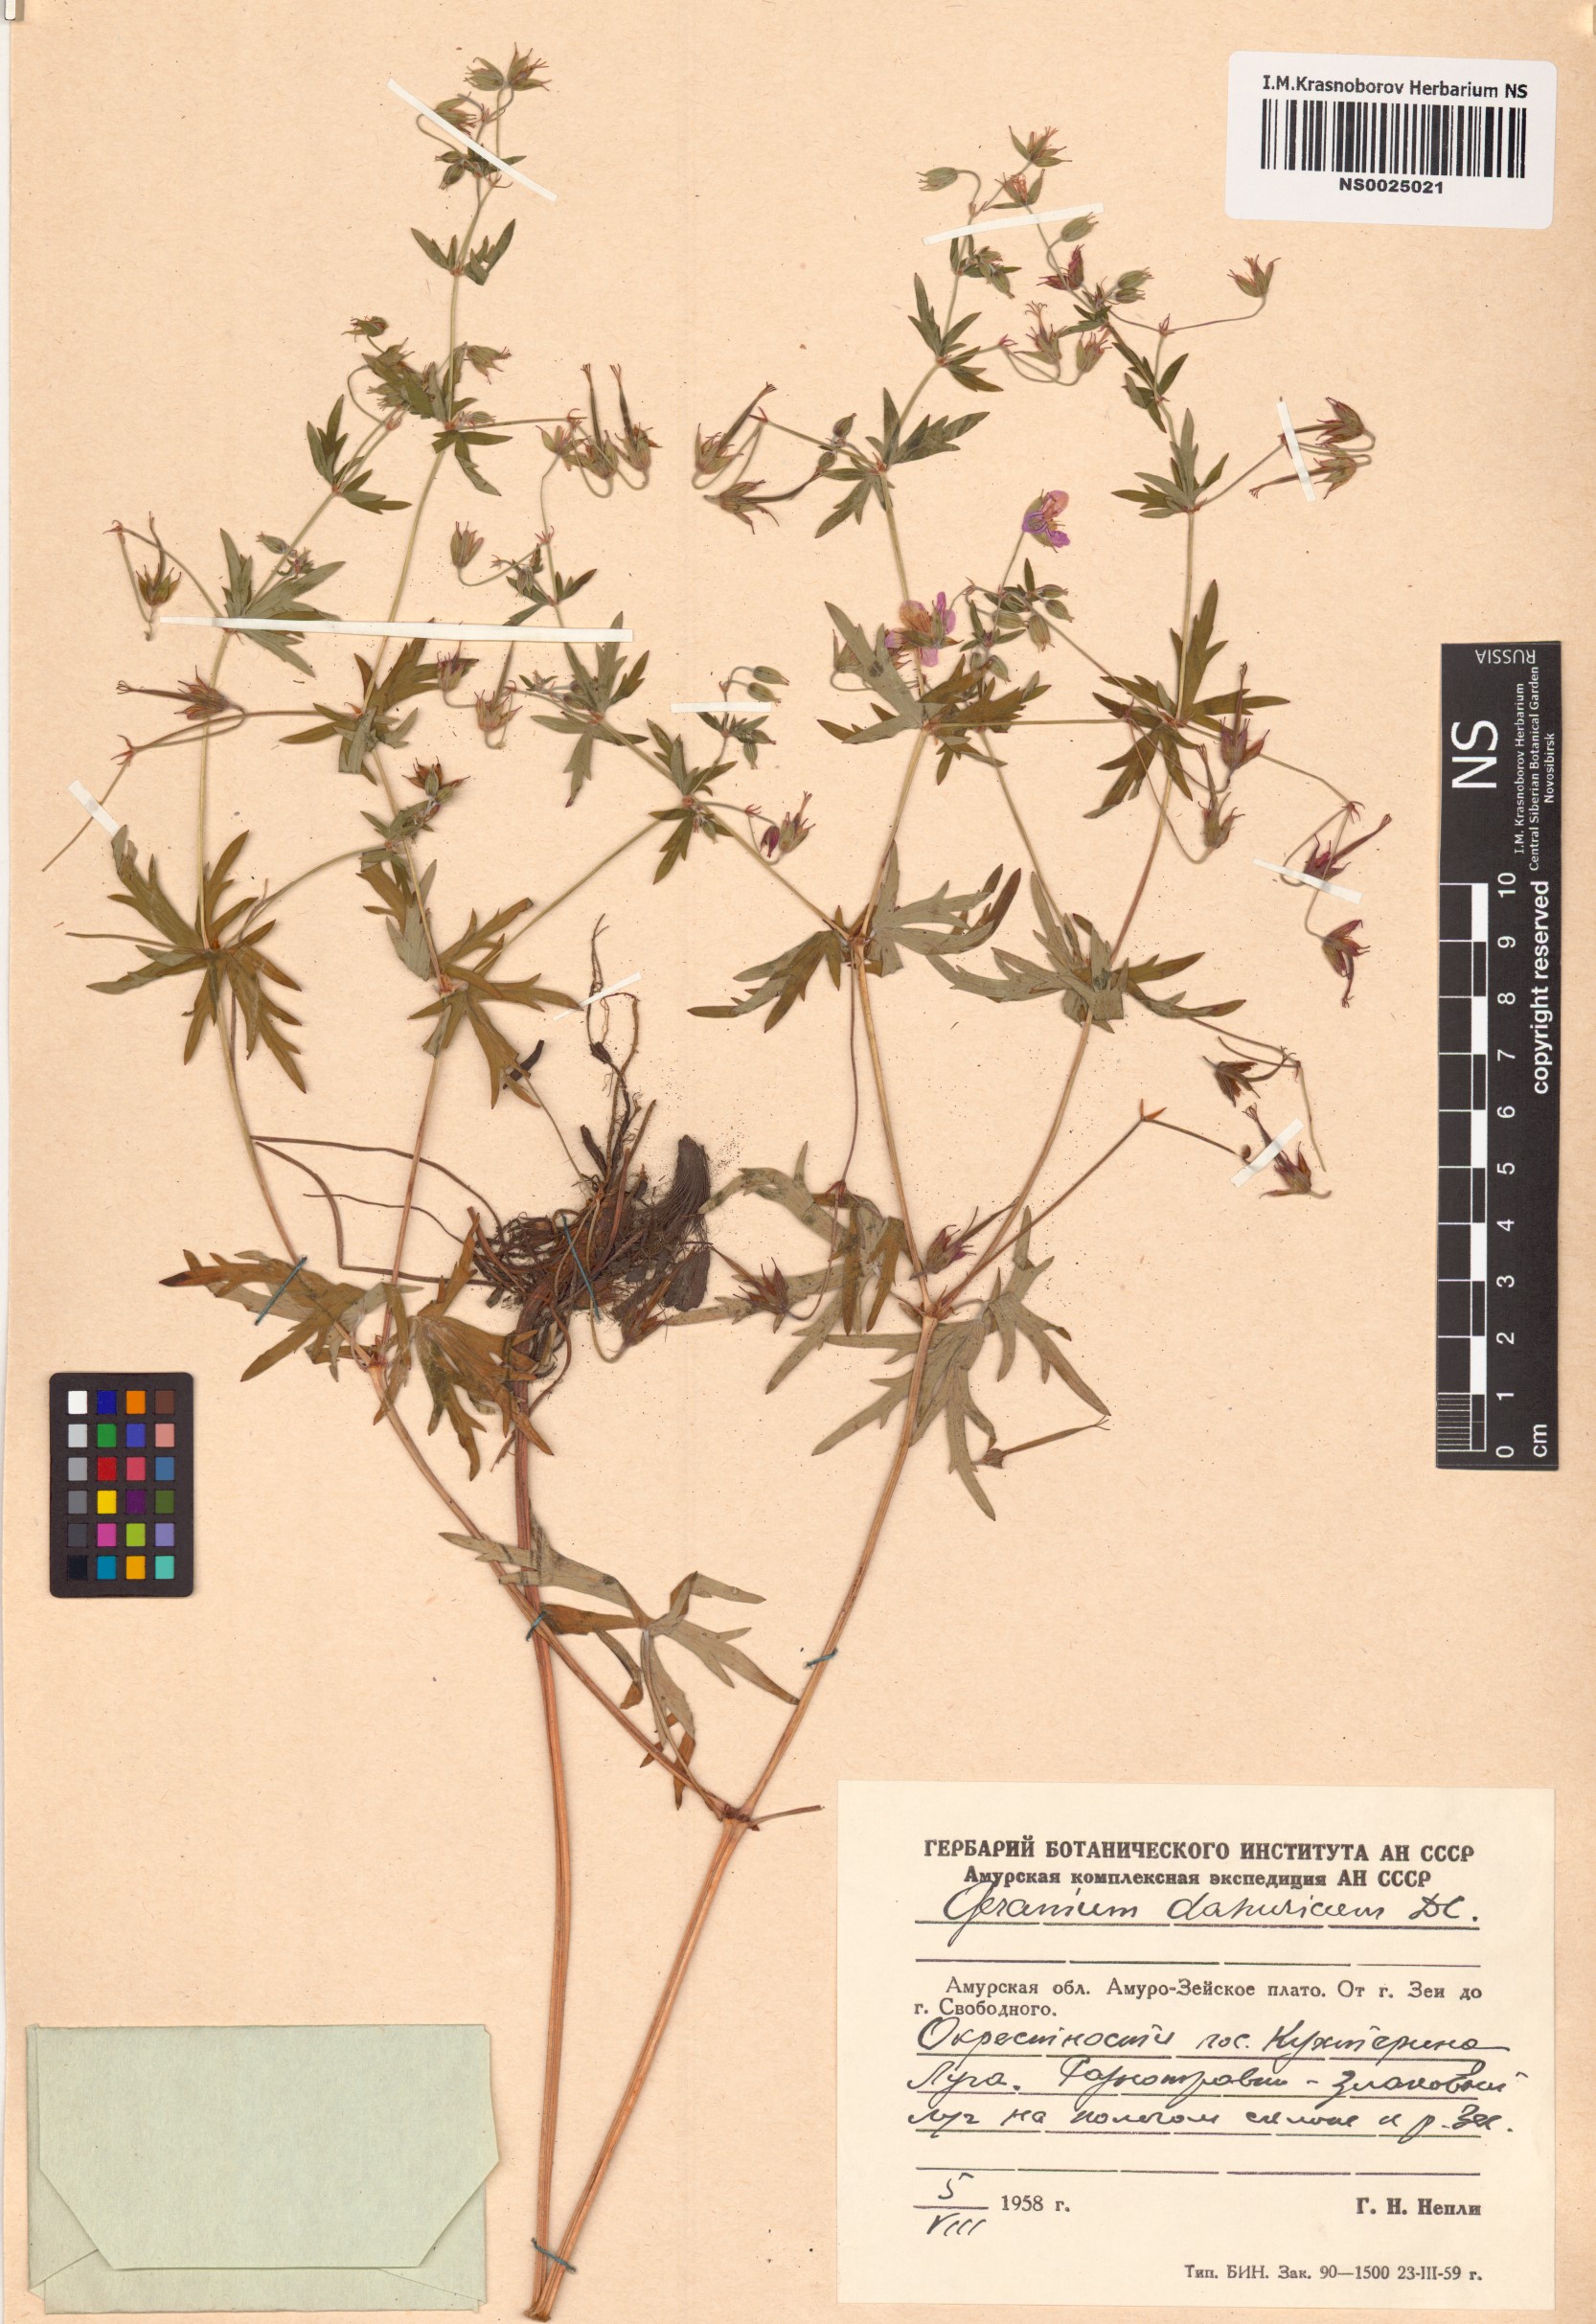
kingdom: Plantae
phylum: Tracheophyta
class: Magnoliopsida
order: Geraniales
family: Geraniaceae
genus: Geranium
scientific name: Geranium dahuricum
